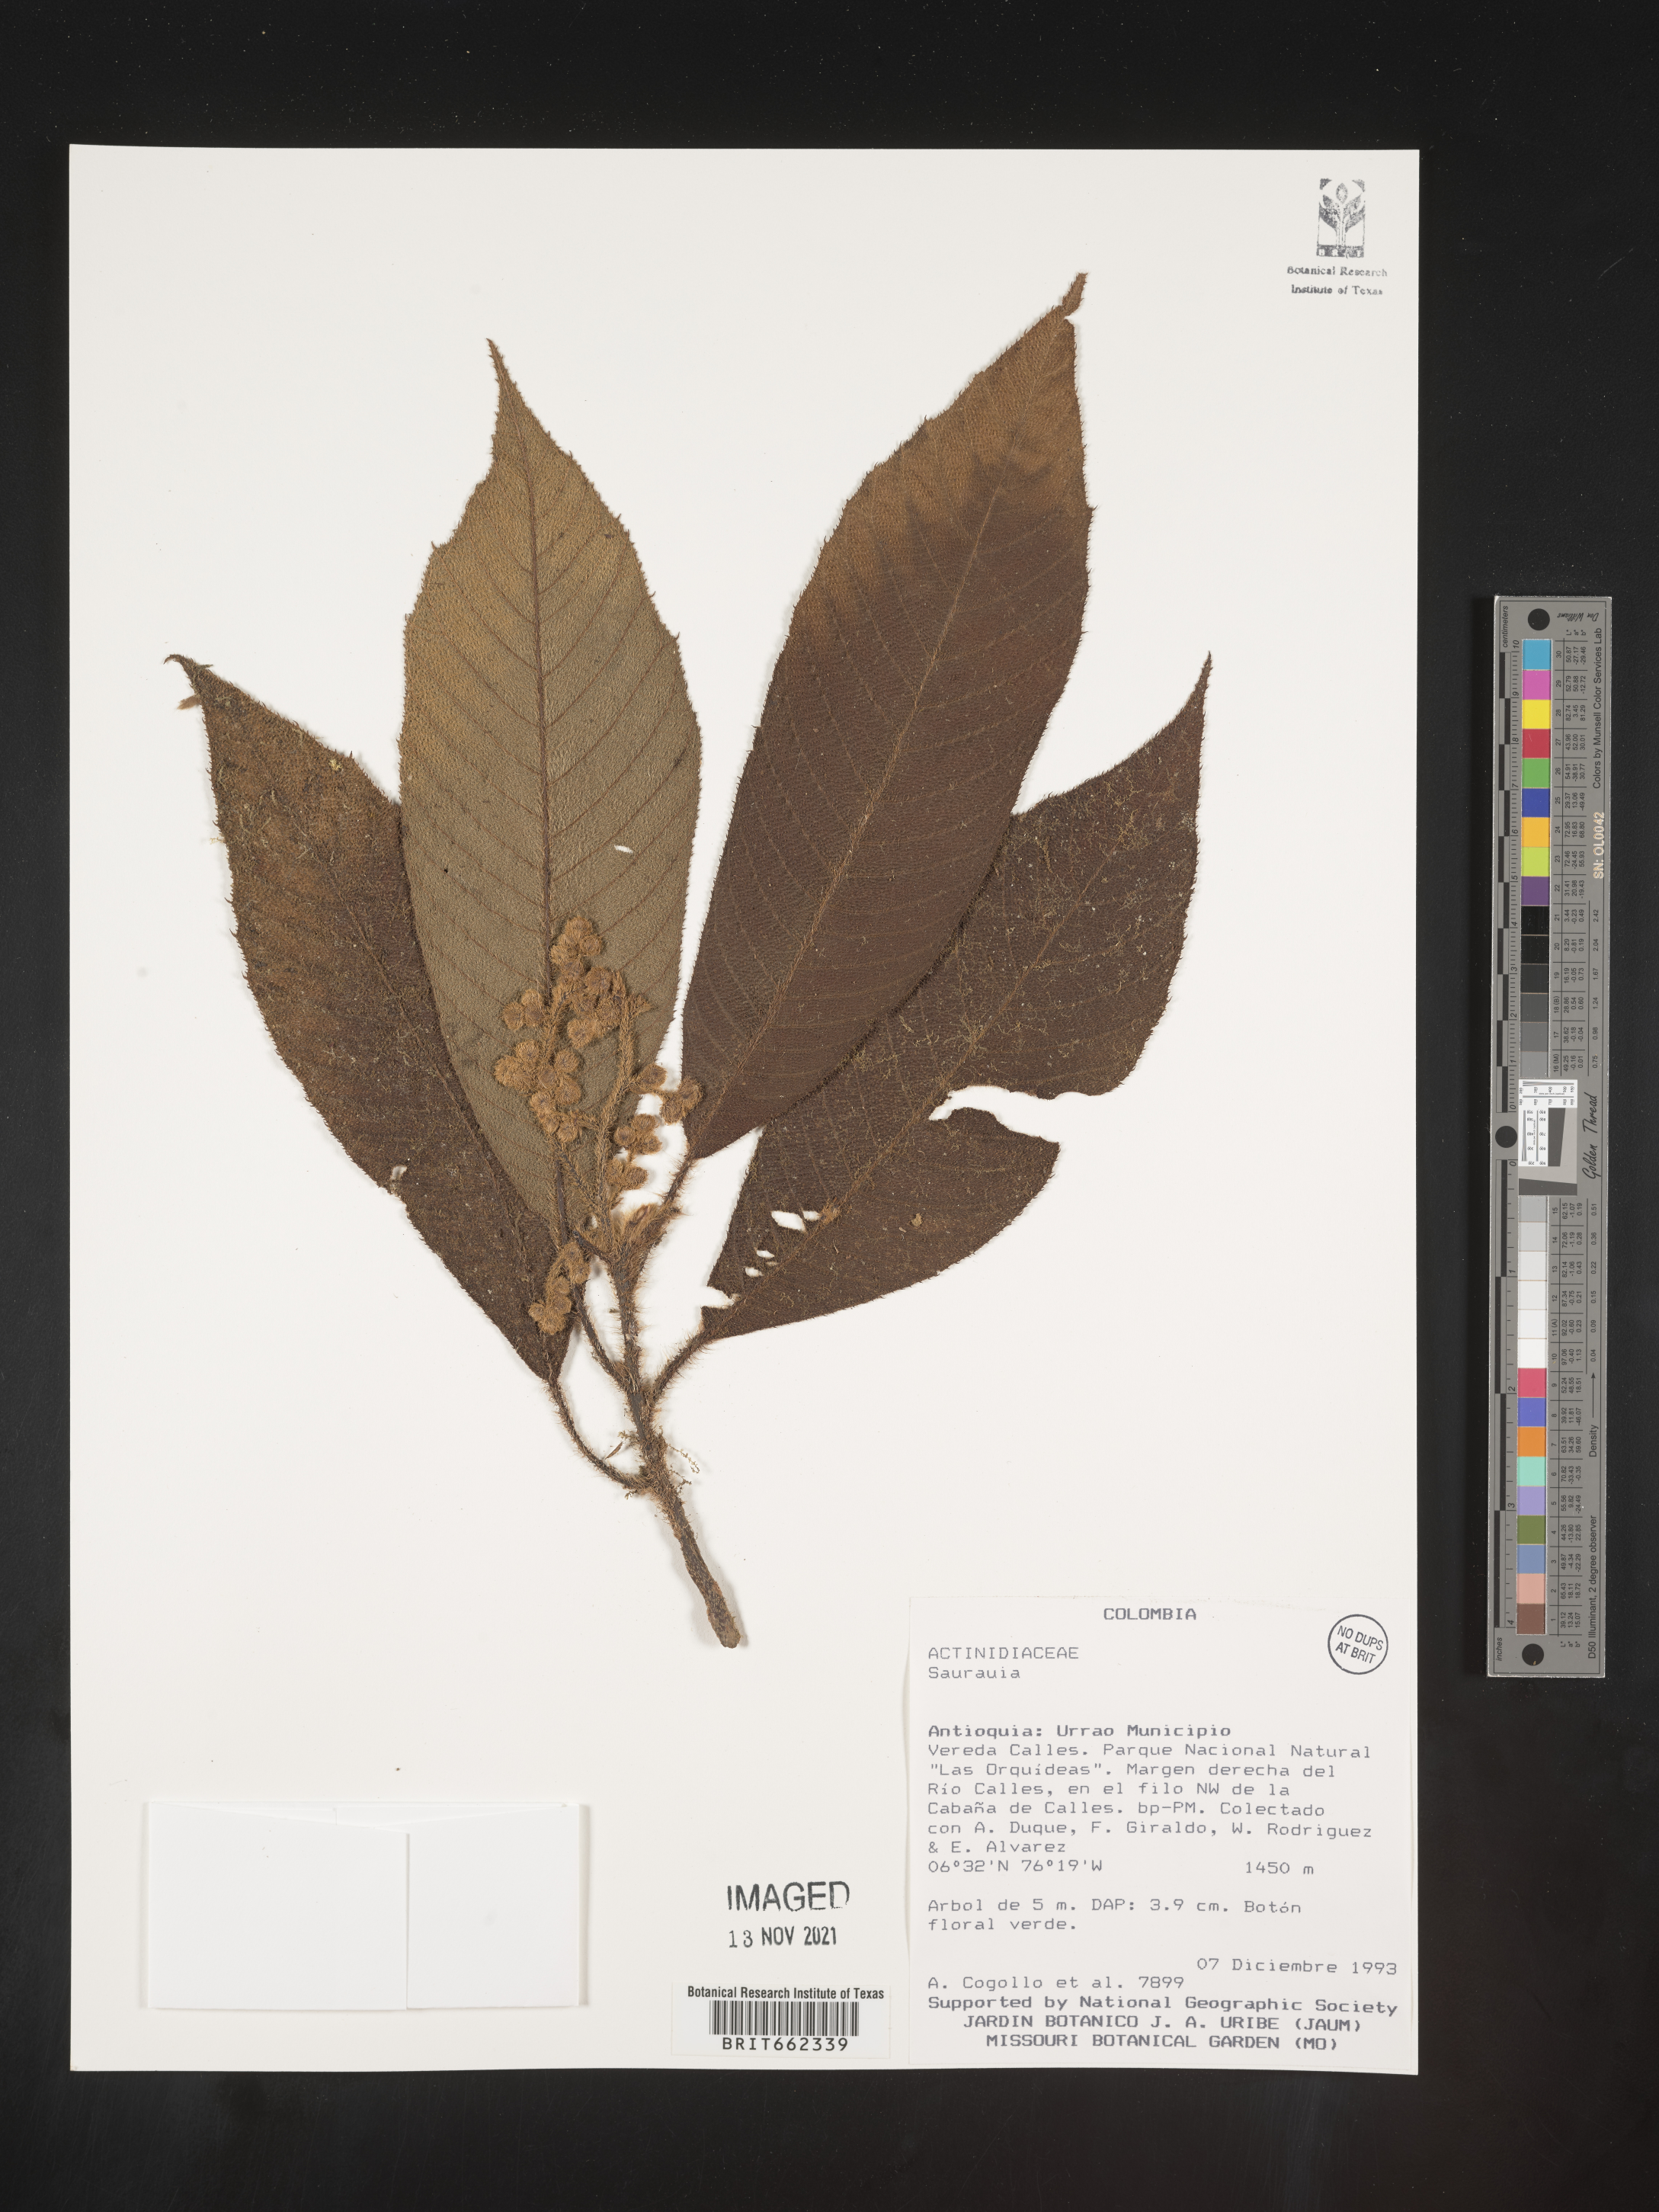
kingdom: Plantae
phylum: Tracheophyta
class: Magnoliopsida
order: Ericales
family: Actinidiaceae
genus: Saurauia
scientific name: Saurauia
